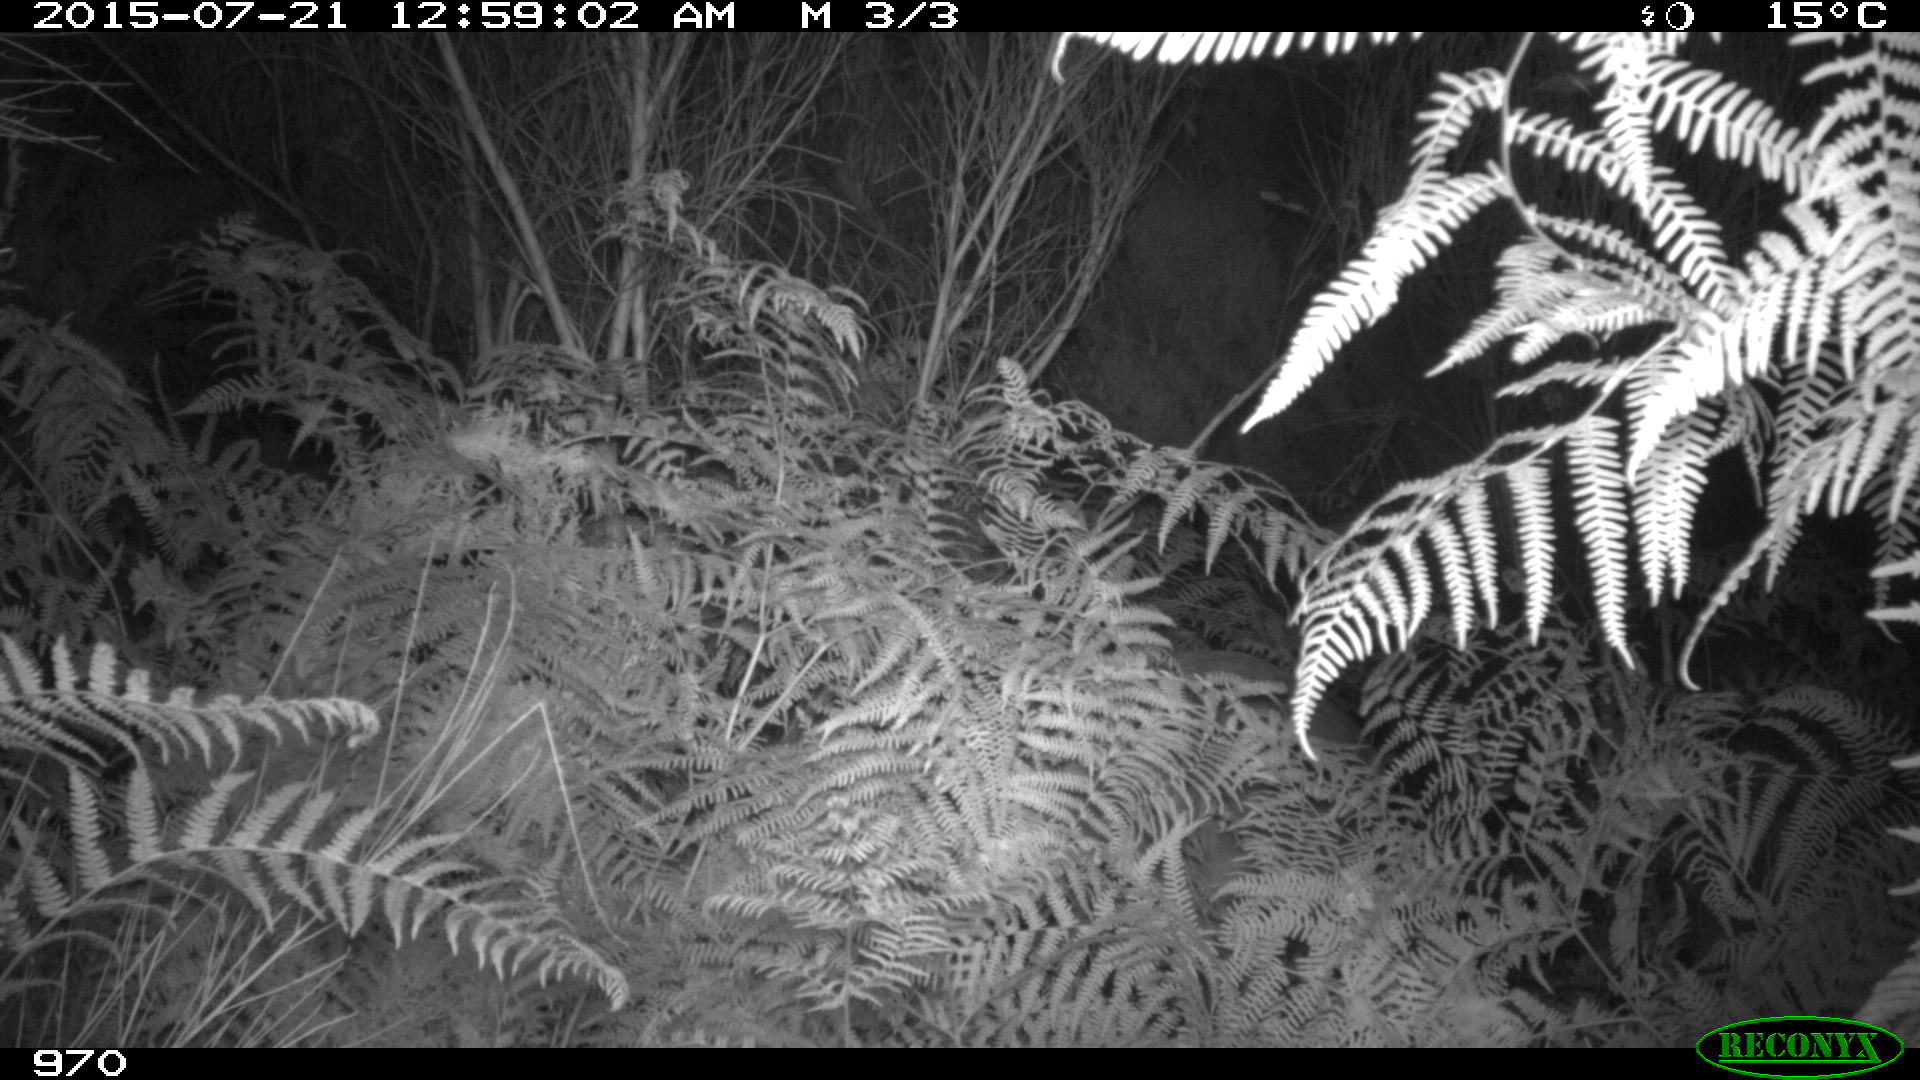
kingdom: Animalia
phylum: Chordata
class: Mammalia
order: Artiodactyla
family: Cervidae
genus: Capreolus
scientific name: Capreolus capreolus
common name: Western roe deer
